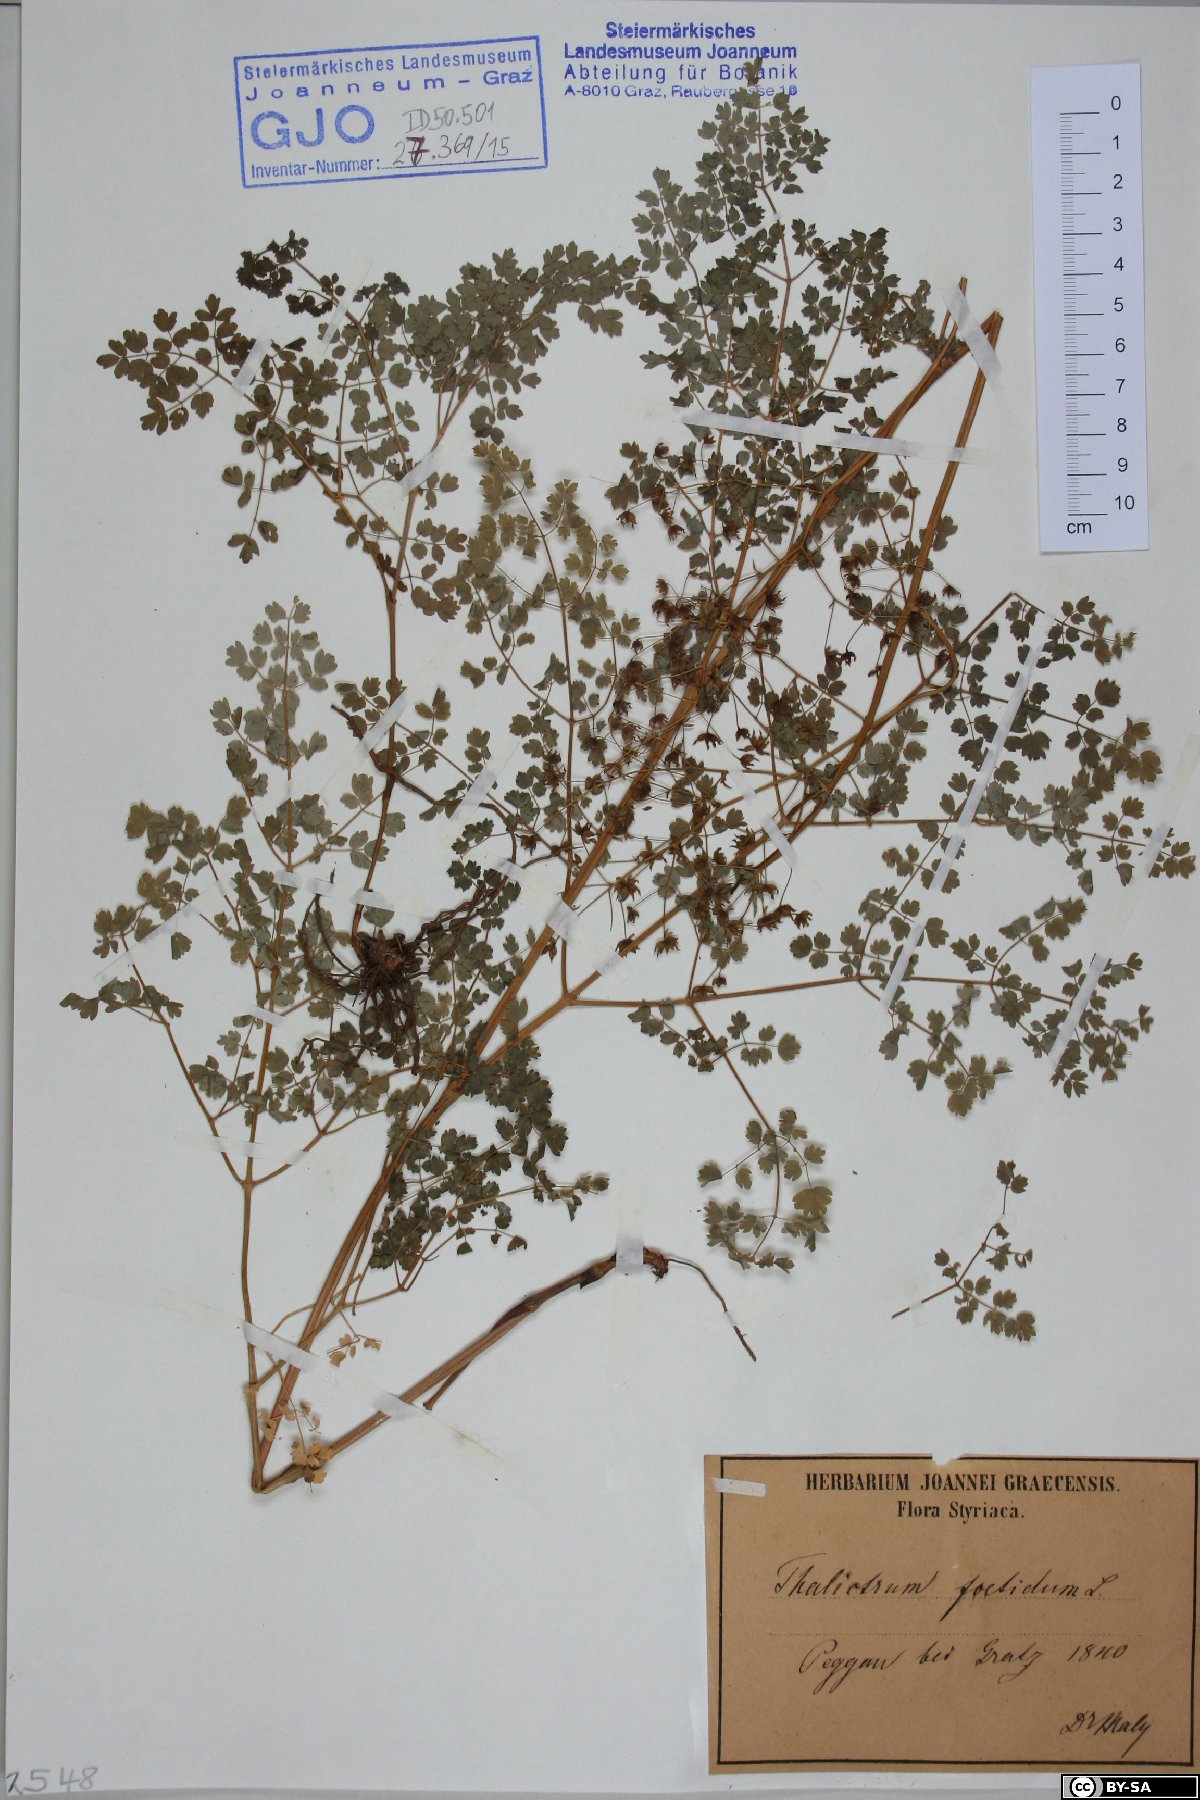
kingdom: Plantae
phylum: Tracheophyta
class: Magnoliopsida
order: Ranunculales
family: Ranunculaceae
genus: Thalictrum
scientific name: Thalictrum foetidum
